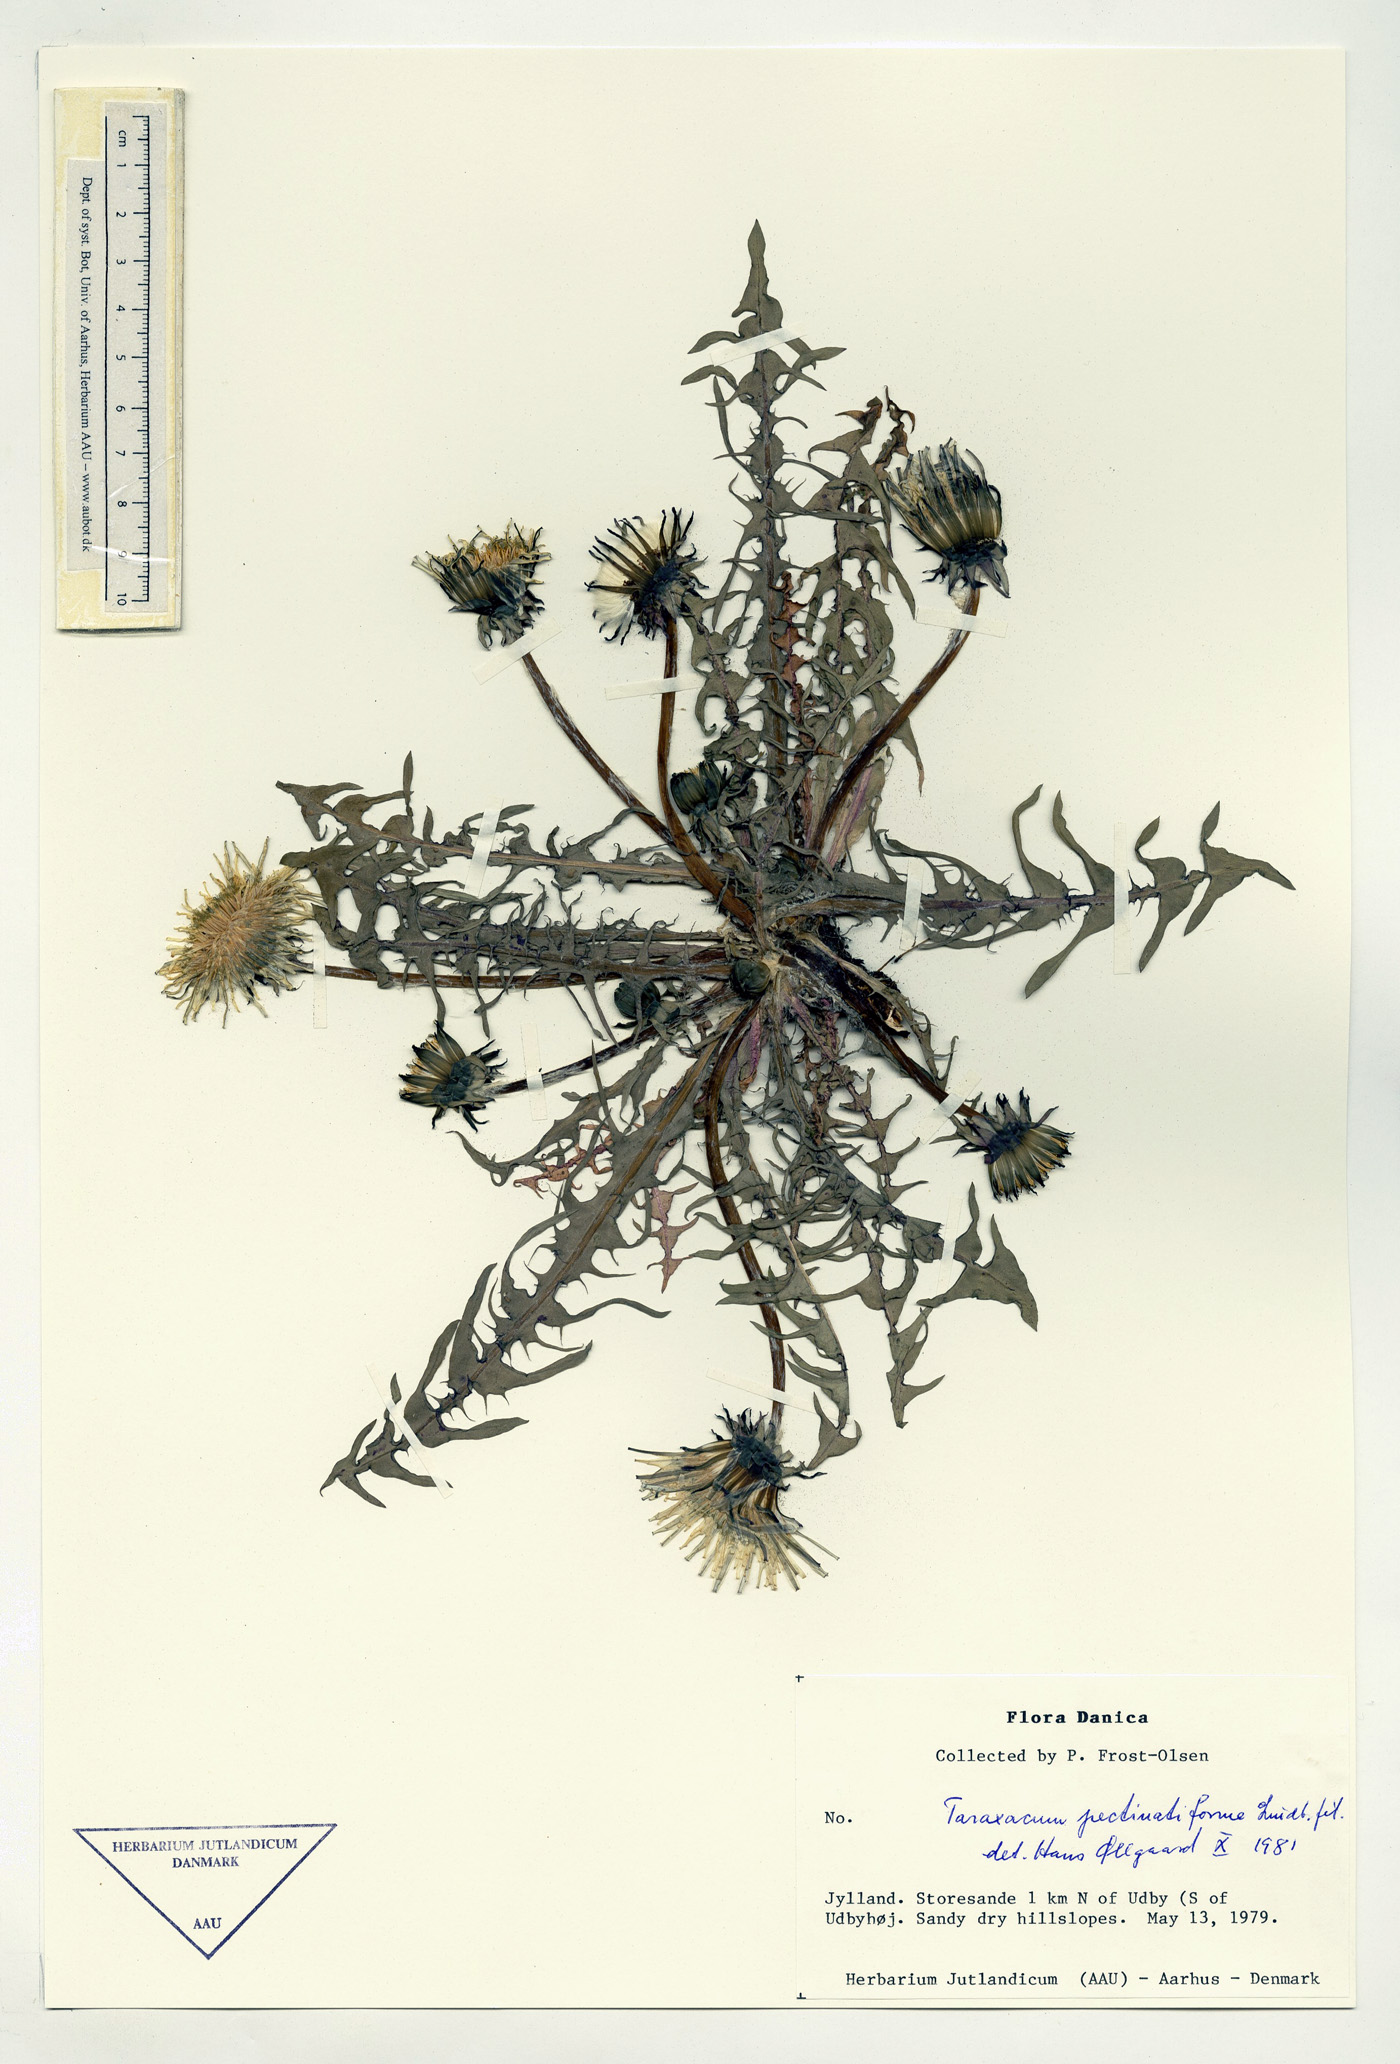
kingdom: Plantae
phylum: Tracheophyta
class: Magnoliopsida
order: Asterales
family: Asteraceae
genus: Taraxacum
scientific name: Taraxacum pectinatiforme
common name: Pectinate-leaved dandelion
